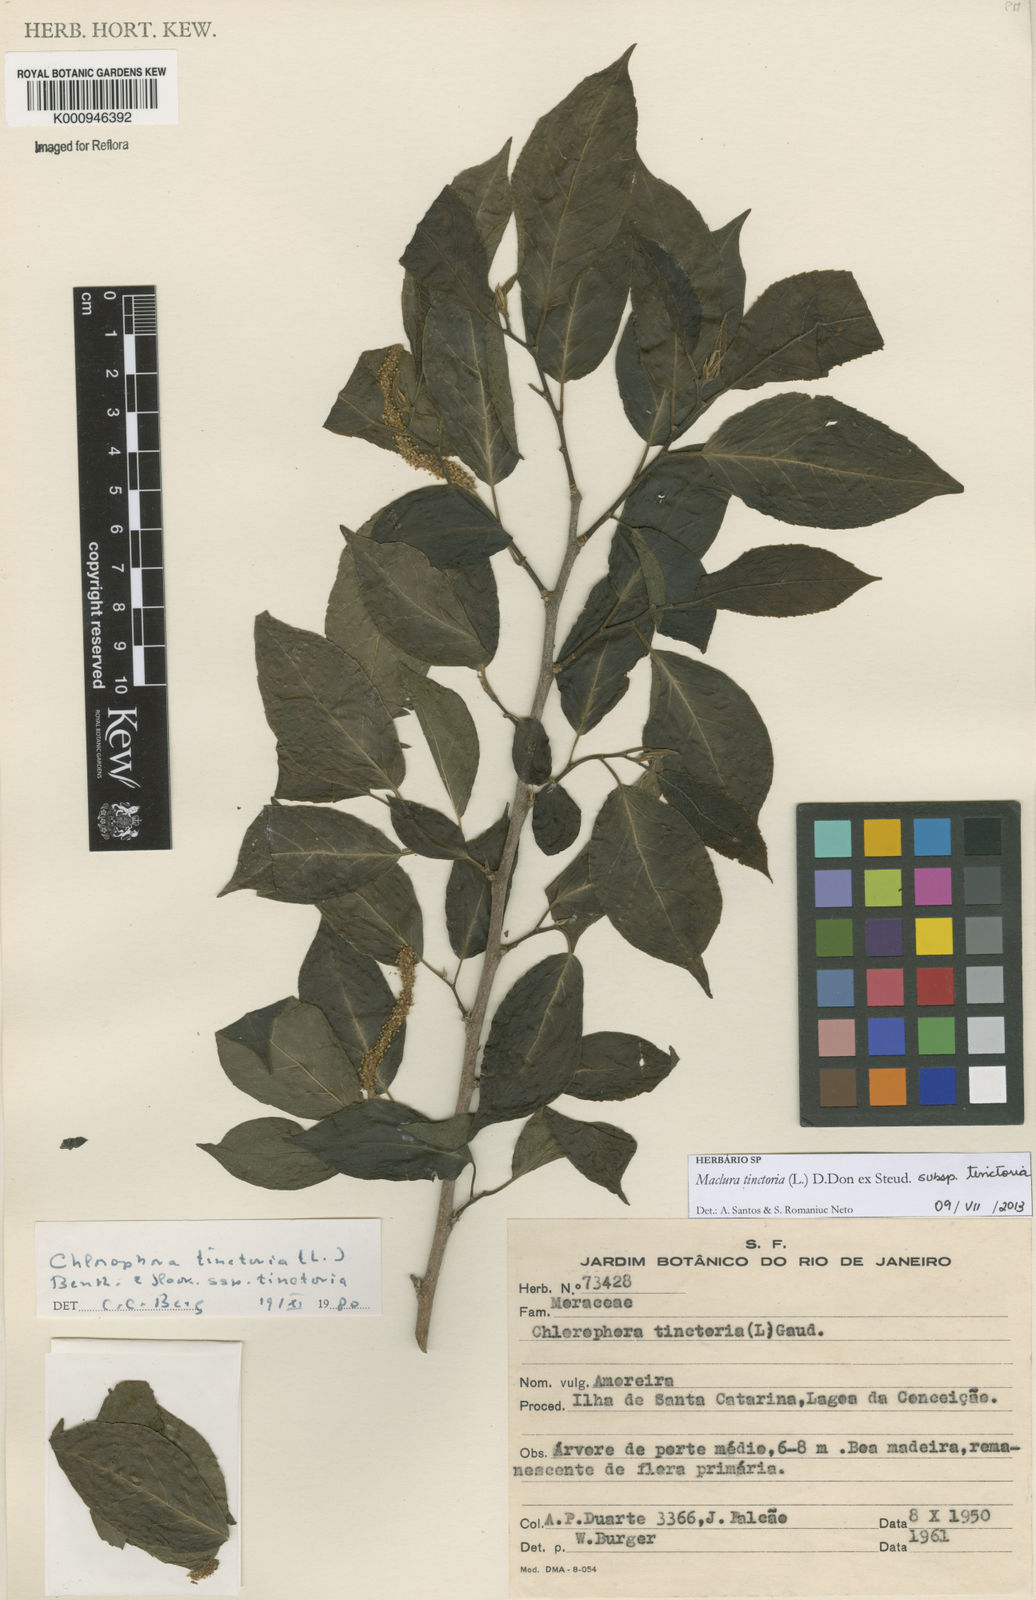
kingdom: Plantae
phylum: Tracheophyta
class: Magnoliopsida
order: Rosales
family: Moraceae
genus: Maclura
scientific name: Maclura
